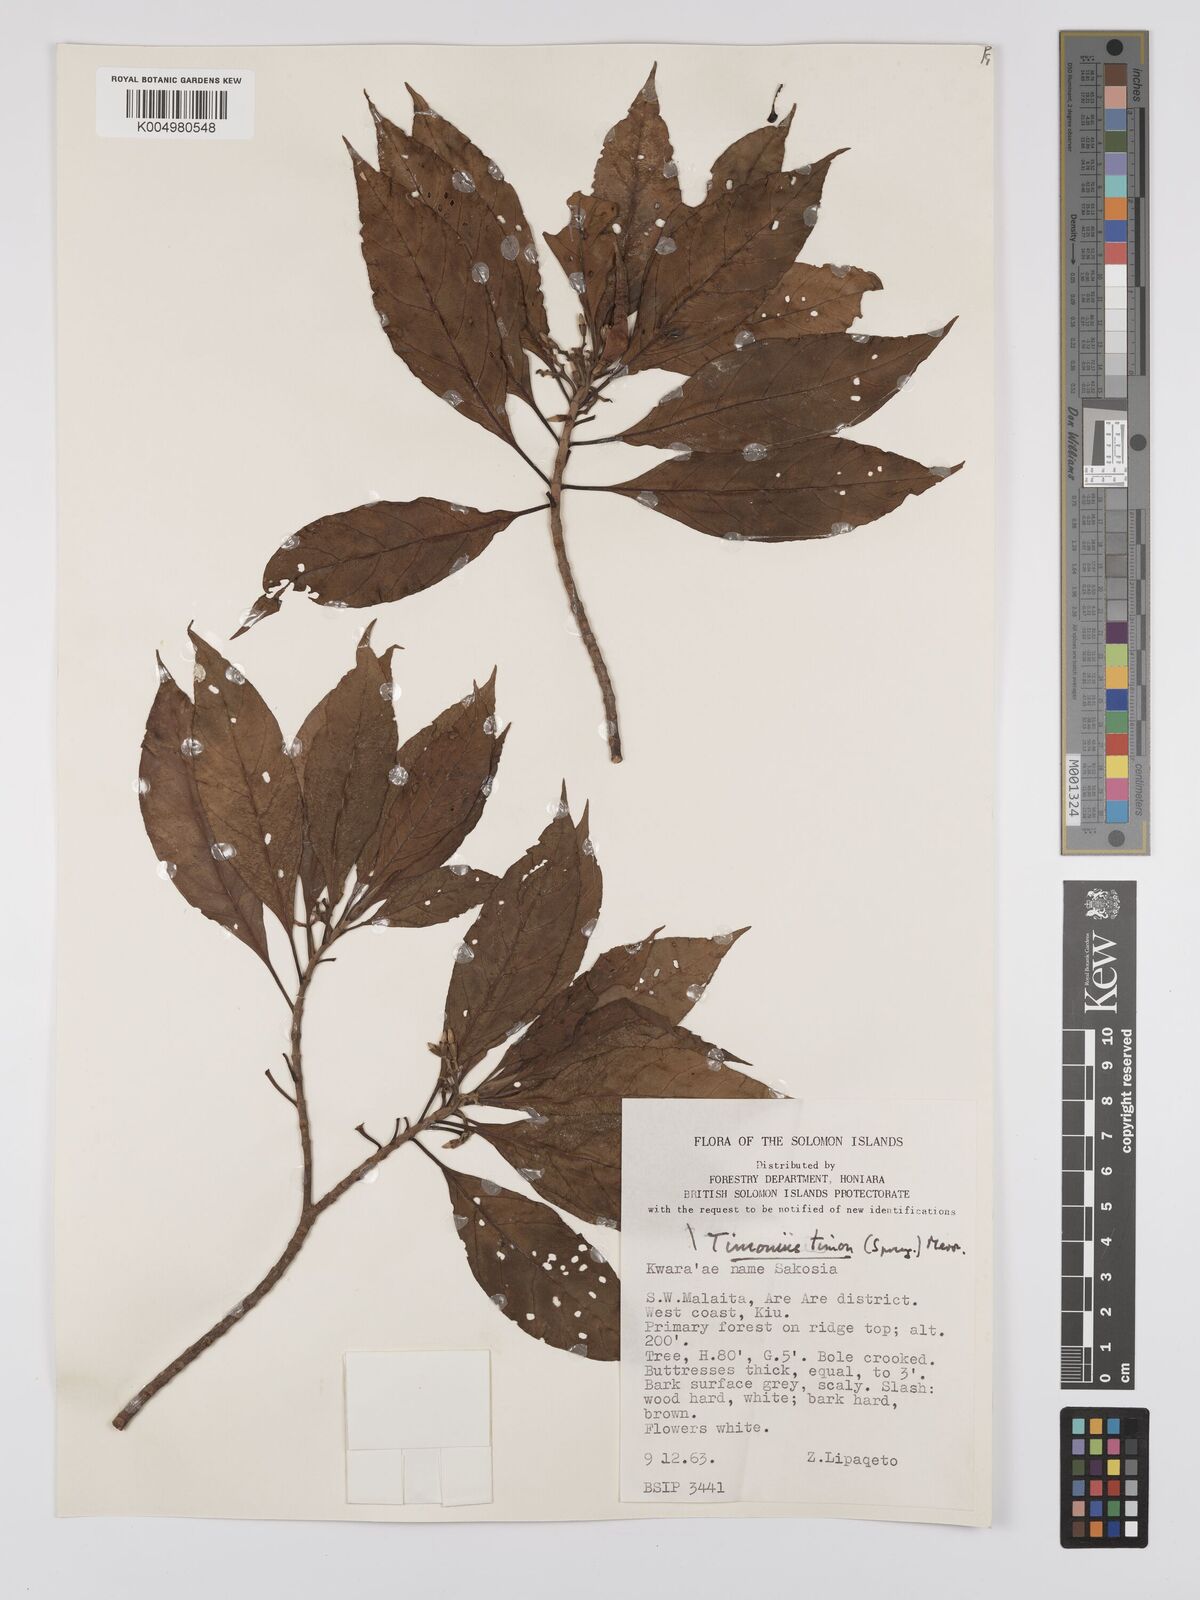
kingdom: Plantae
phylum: Tracheophyta
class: Magnoliopsida
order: Gentianales
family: Rubiaceae
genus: Timonius
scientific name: Timonius timon
